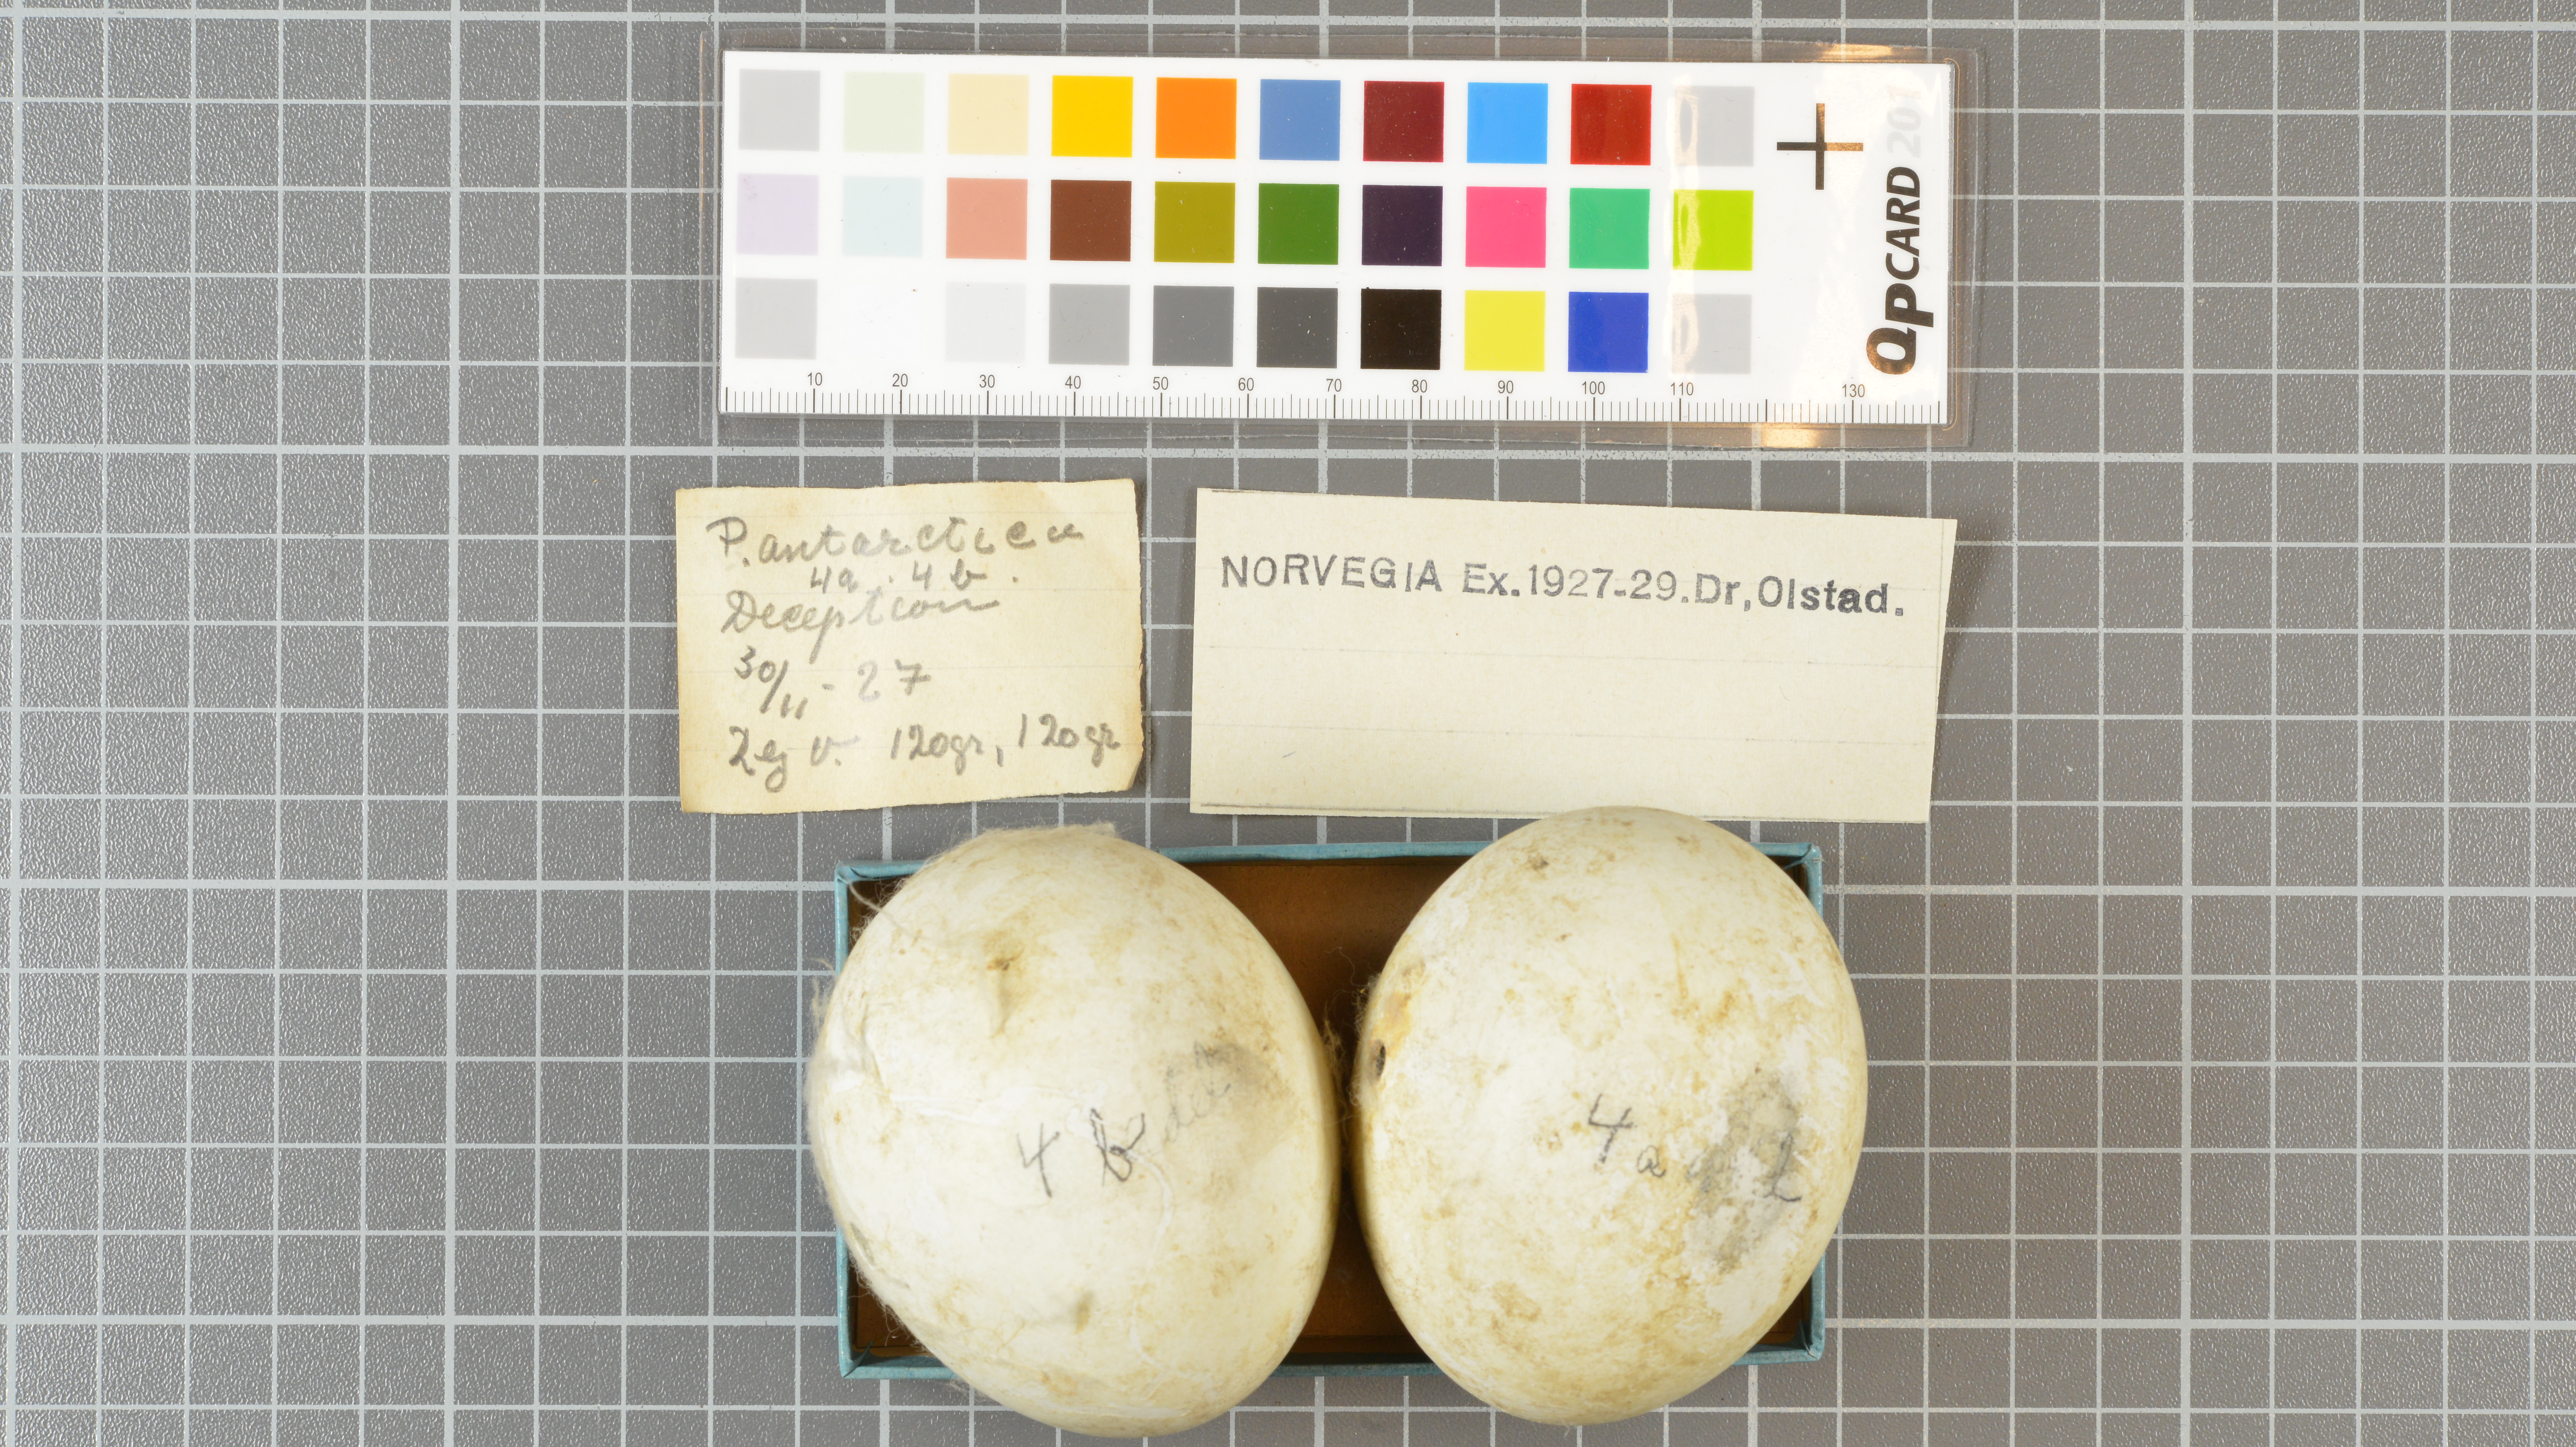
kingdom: Animalia
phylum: Chordata
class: Aves
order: Sphenisciformes
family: Spheniscidae
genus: Pygoscelis
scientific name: Pygoscelis antarcticus
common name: Chinstrap penguin
